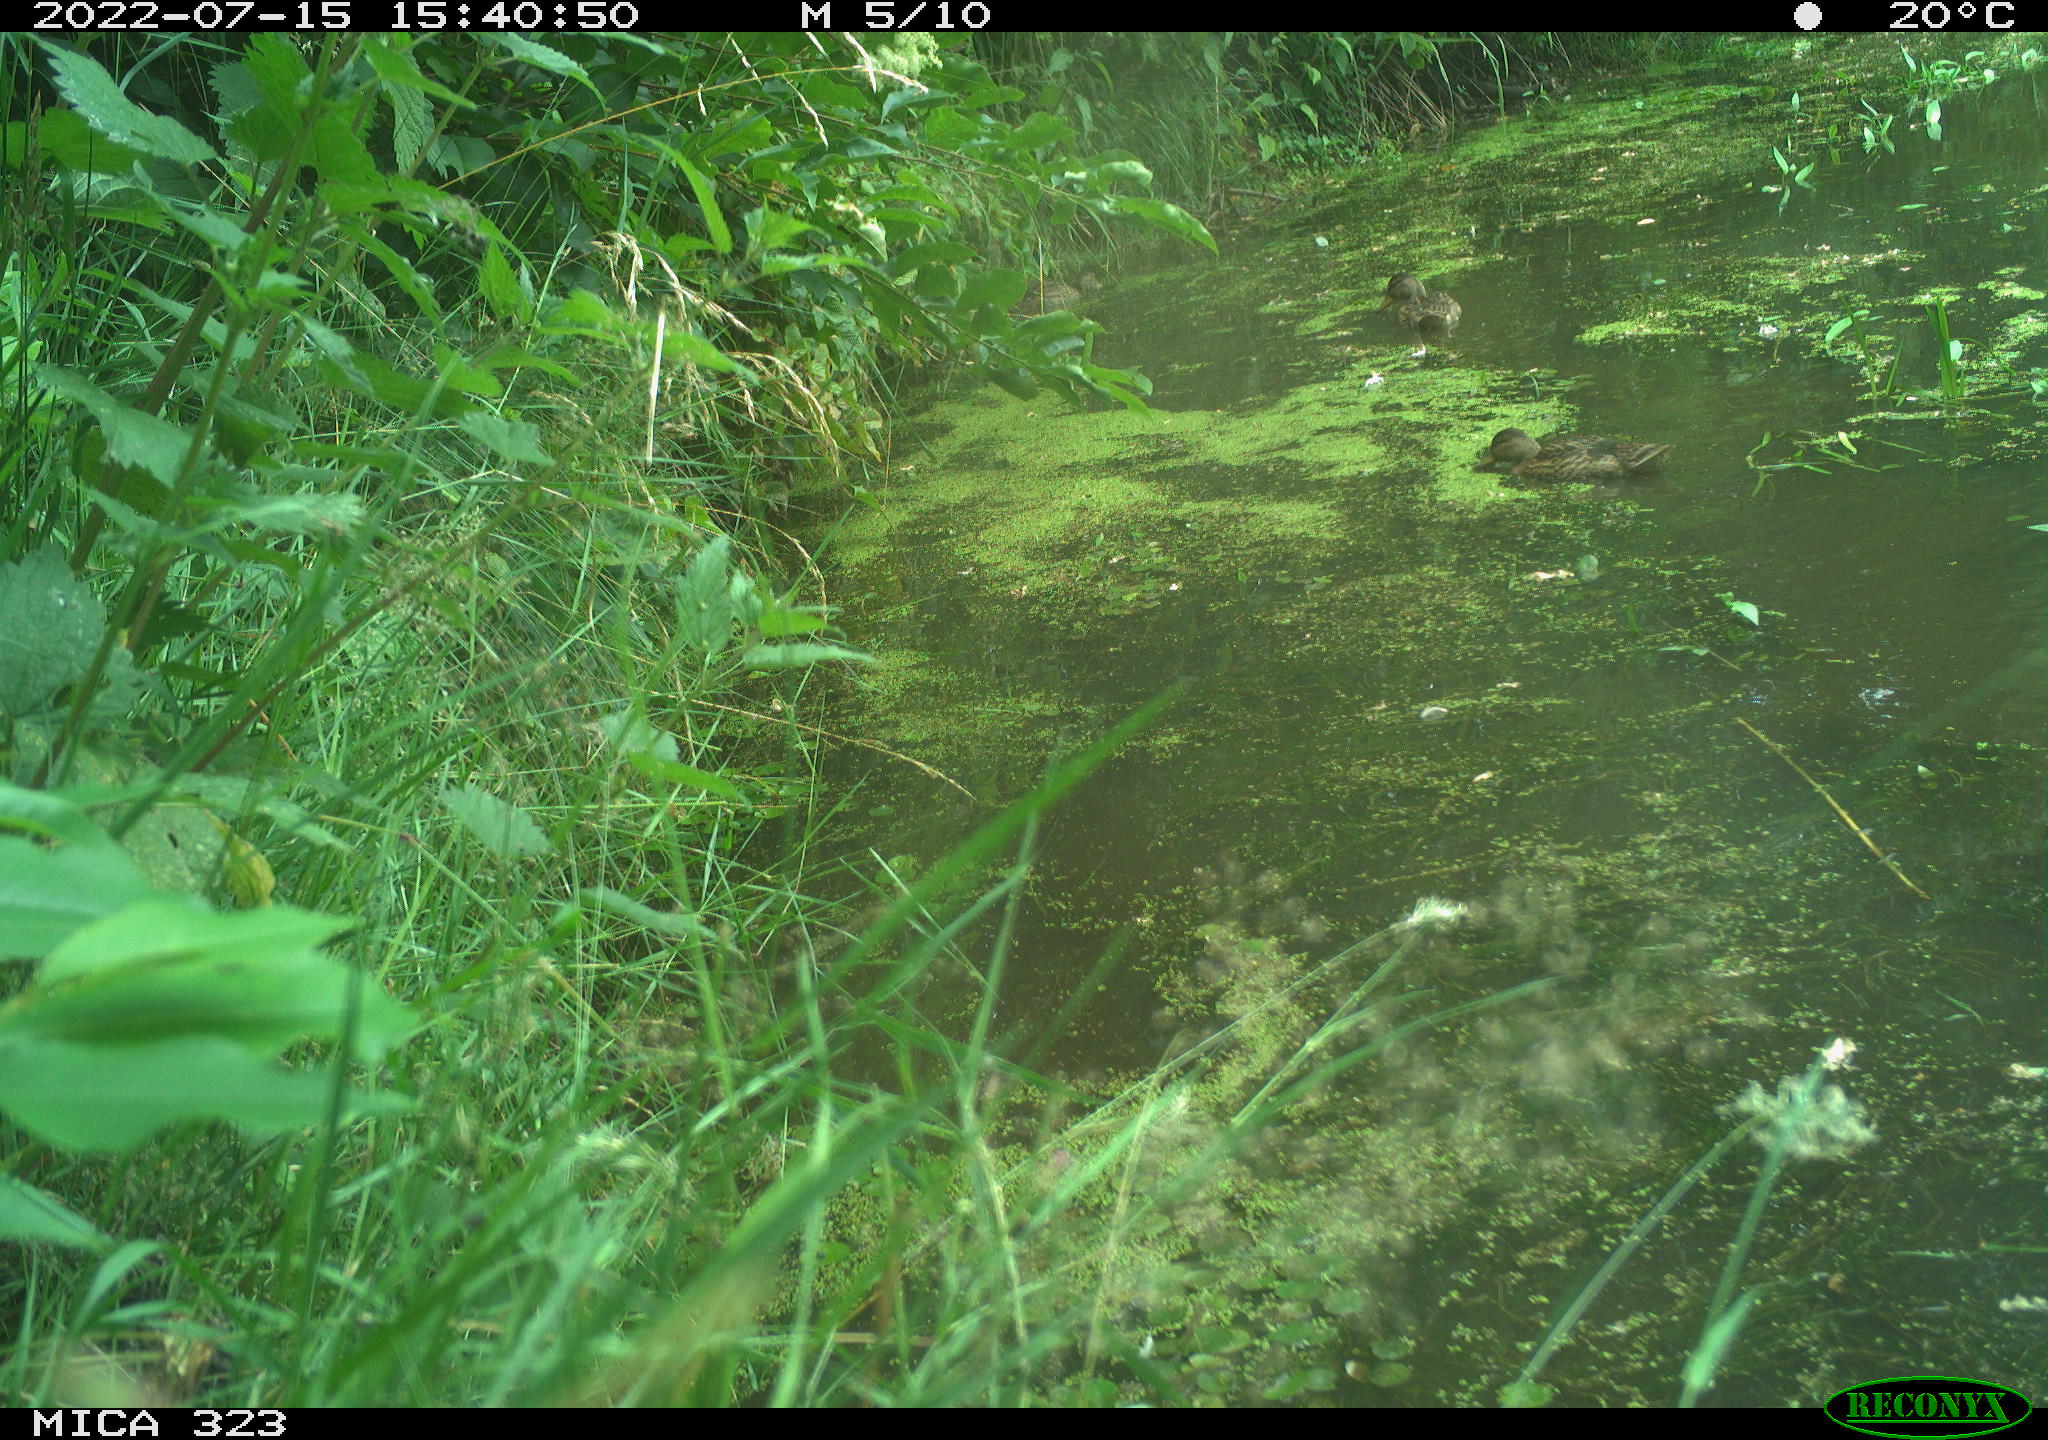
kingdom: Animalia
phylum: Chordata
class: Aves
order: Anseriformes
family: Anatidae
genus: Anas
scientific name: Anas platyrhynchos
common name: Mallard
